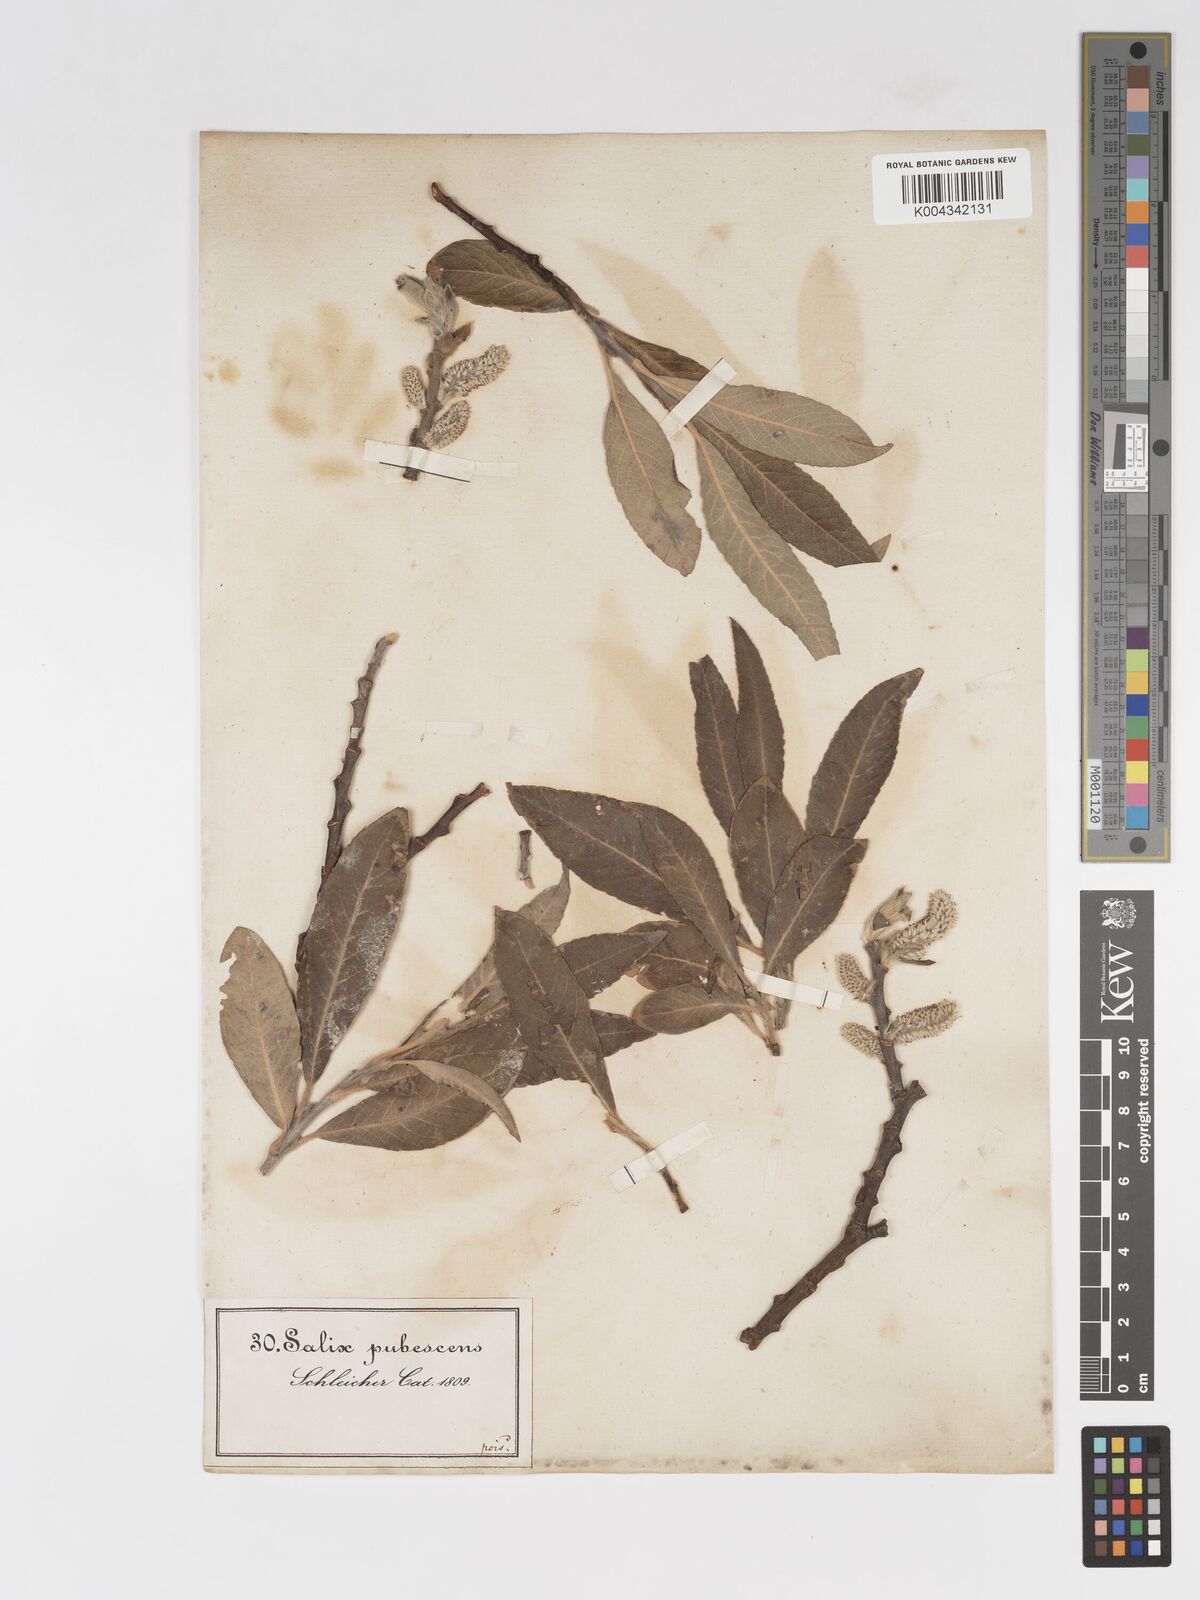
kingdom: Plantae
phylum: Tracheophyta
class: Magnoliopsida
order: Malpighiales
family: Salicaceae
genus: Salix
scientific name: Salix laggeri
